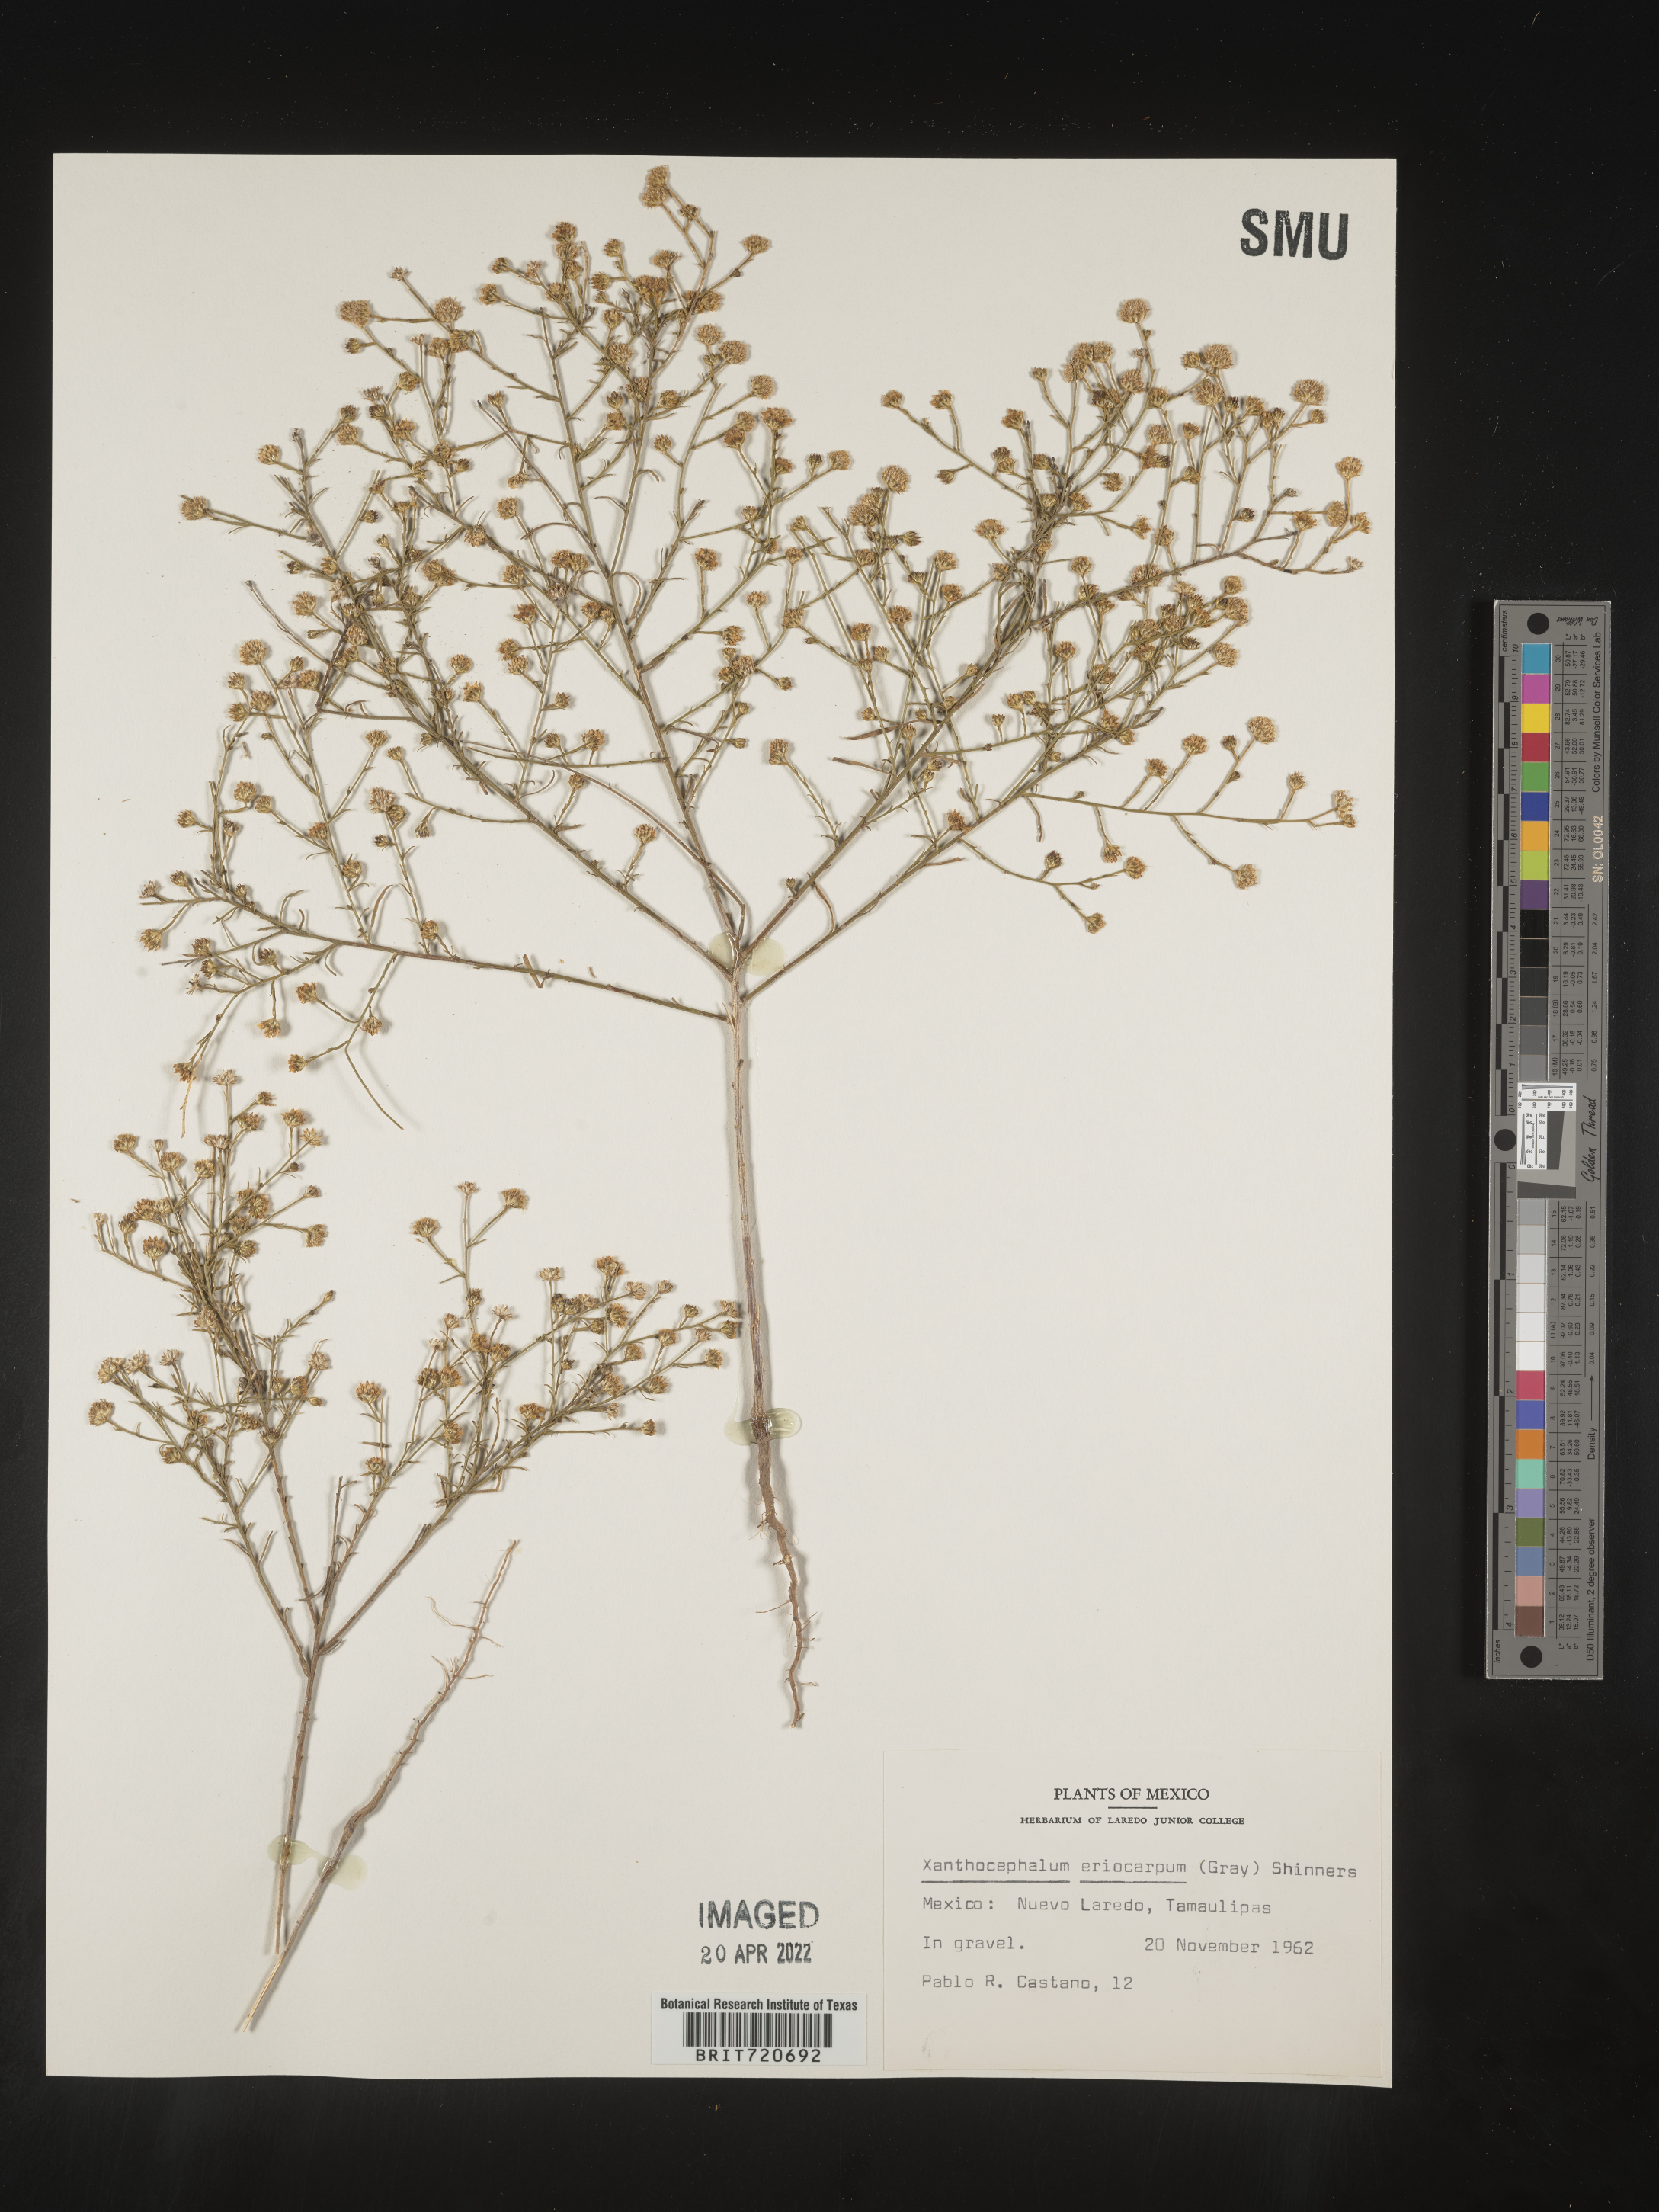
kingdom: Plantae
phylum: Tracheophyta
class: Magnoliopsida
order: Asterales
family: Asteraceae
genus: Gutierrezia
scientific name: Gutierrezia sphaerocephala
